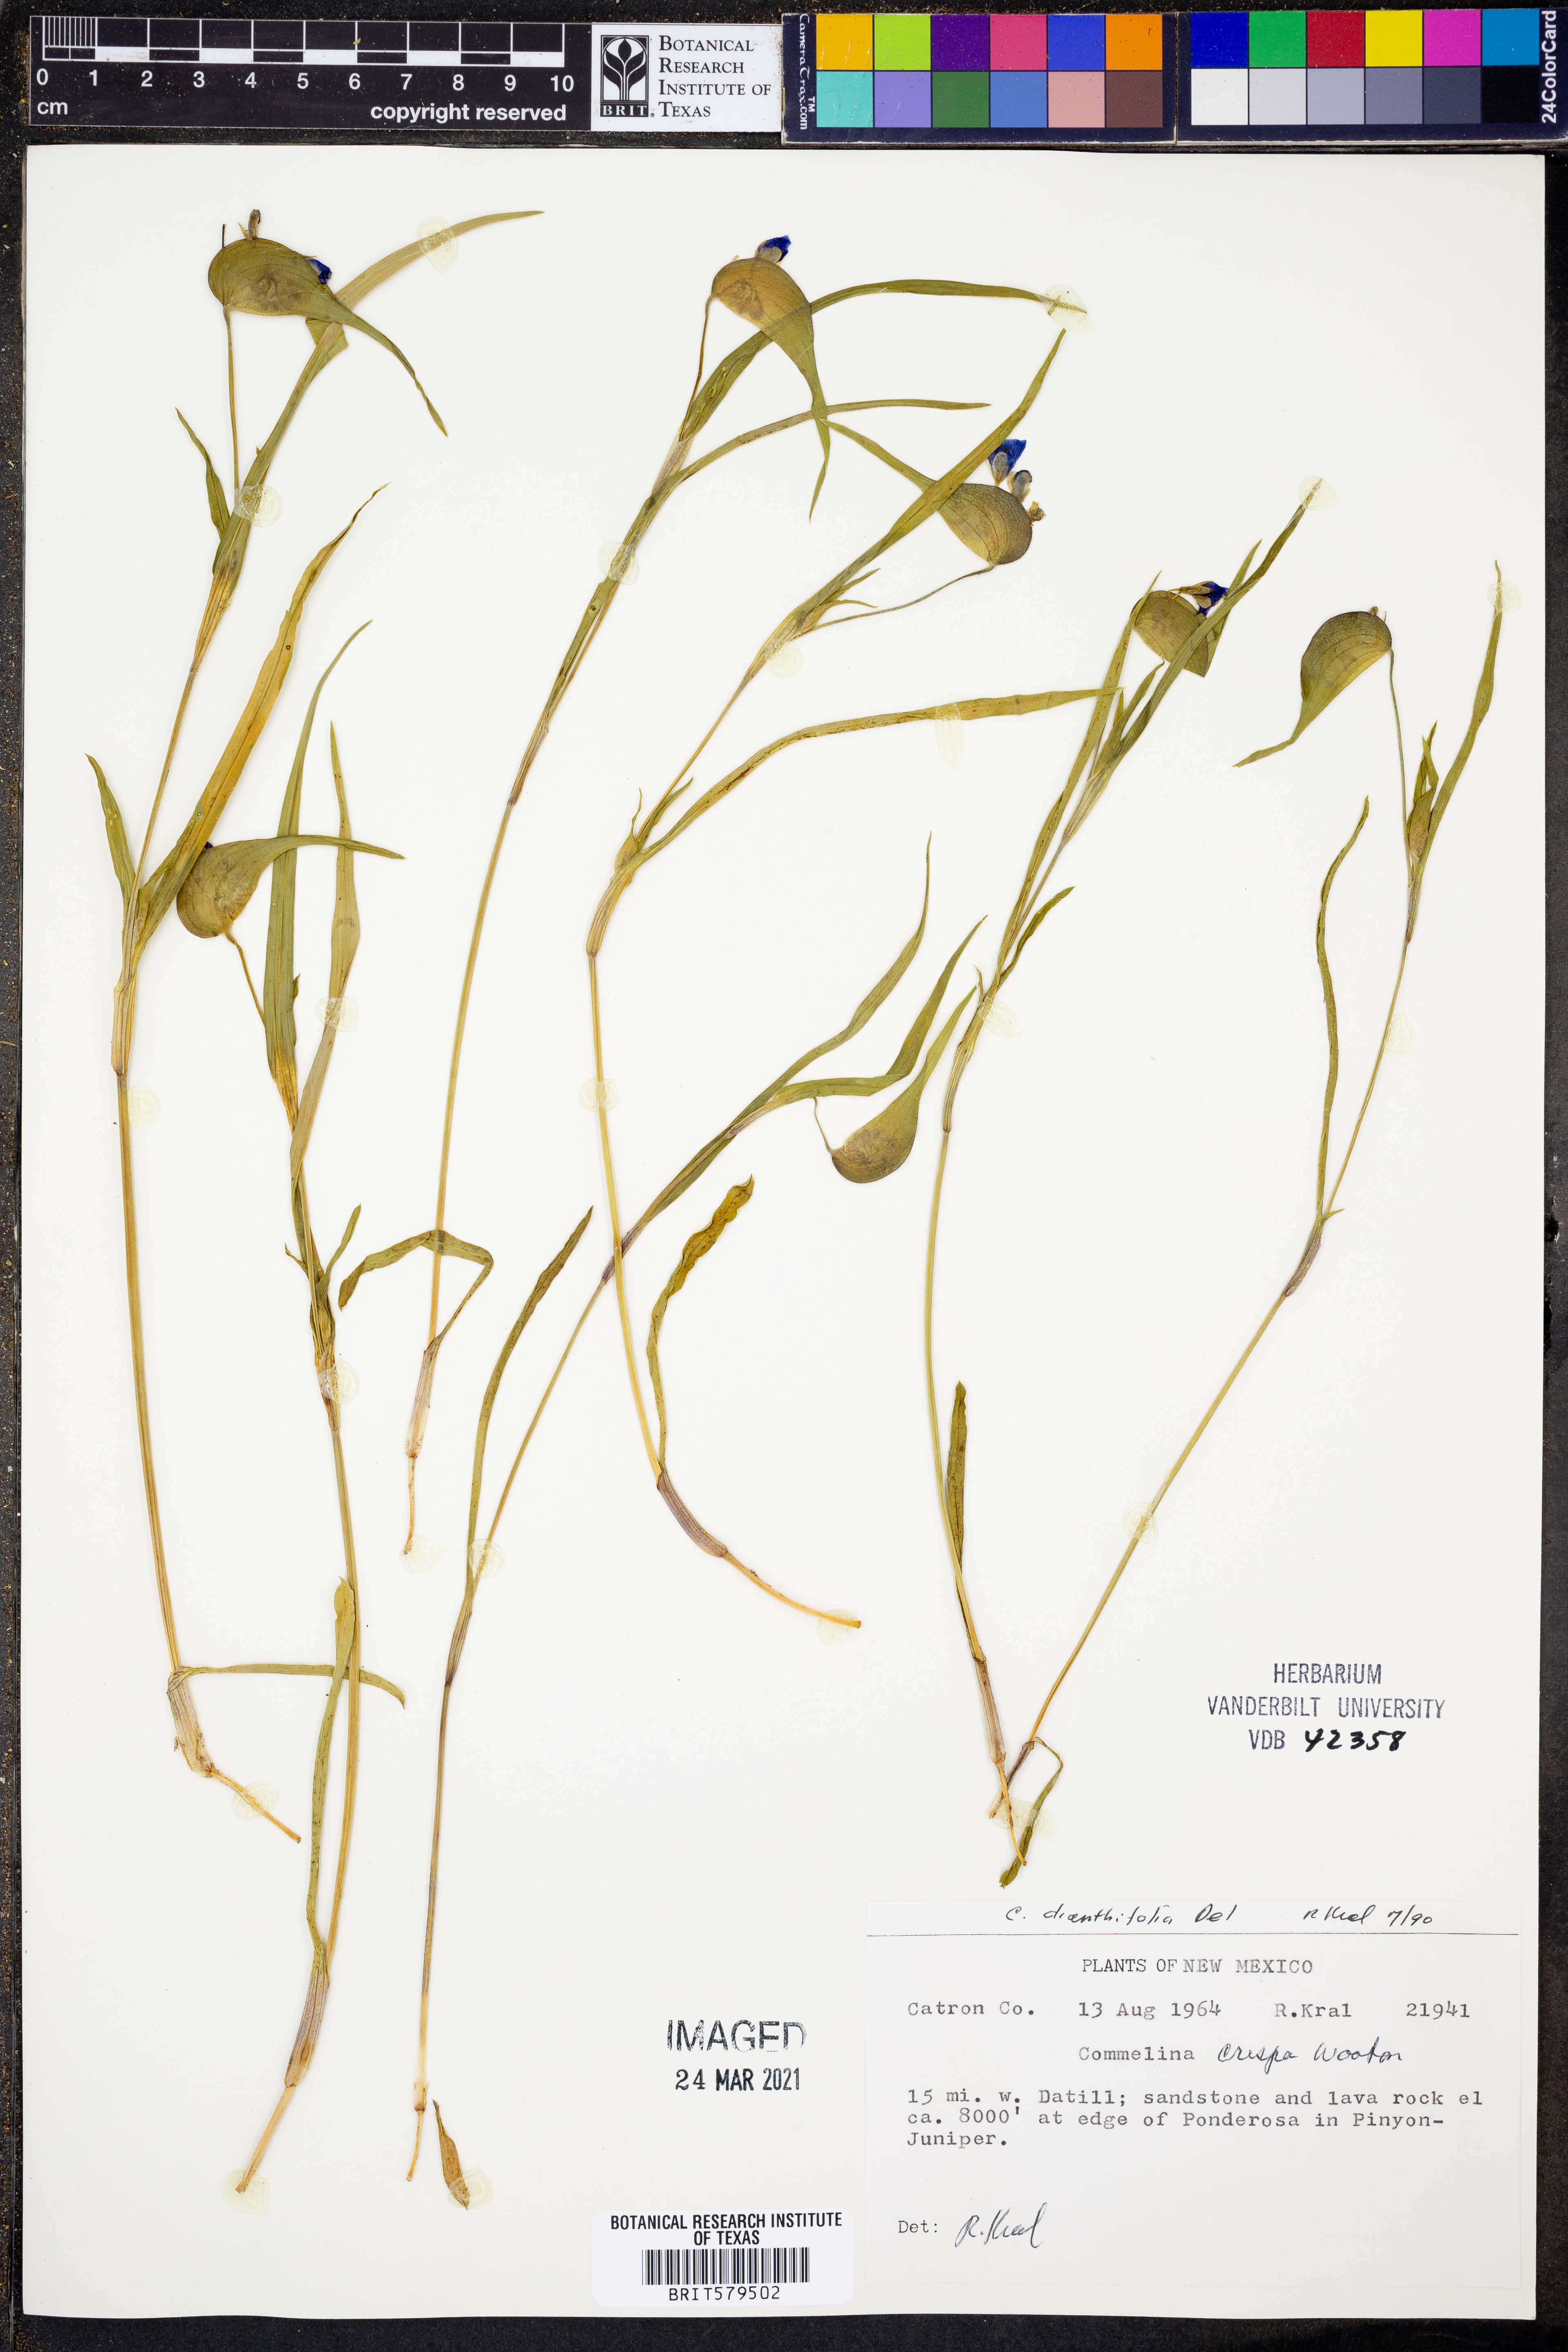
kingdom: Plantae
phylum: Tracheophyta
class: Liliopsida
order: Commelinales
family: Commelinaceae
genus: Commelina
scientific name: Commelina dianthifolia
